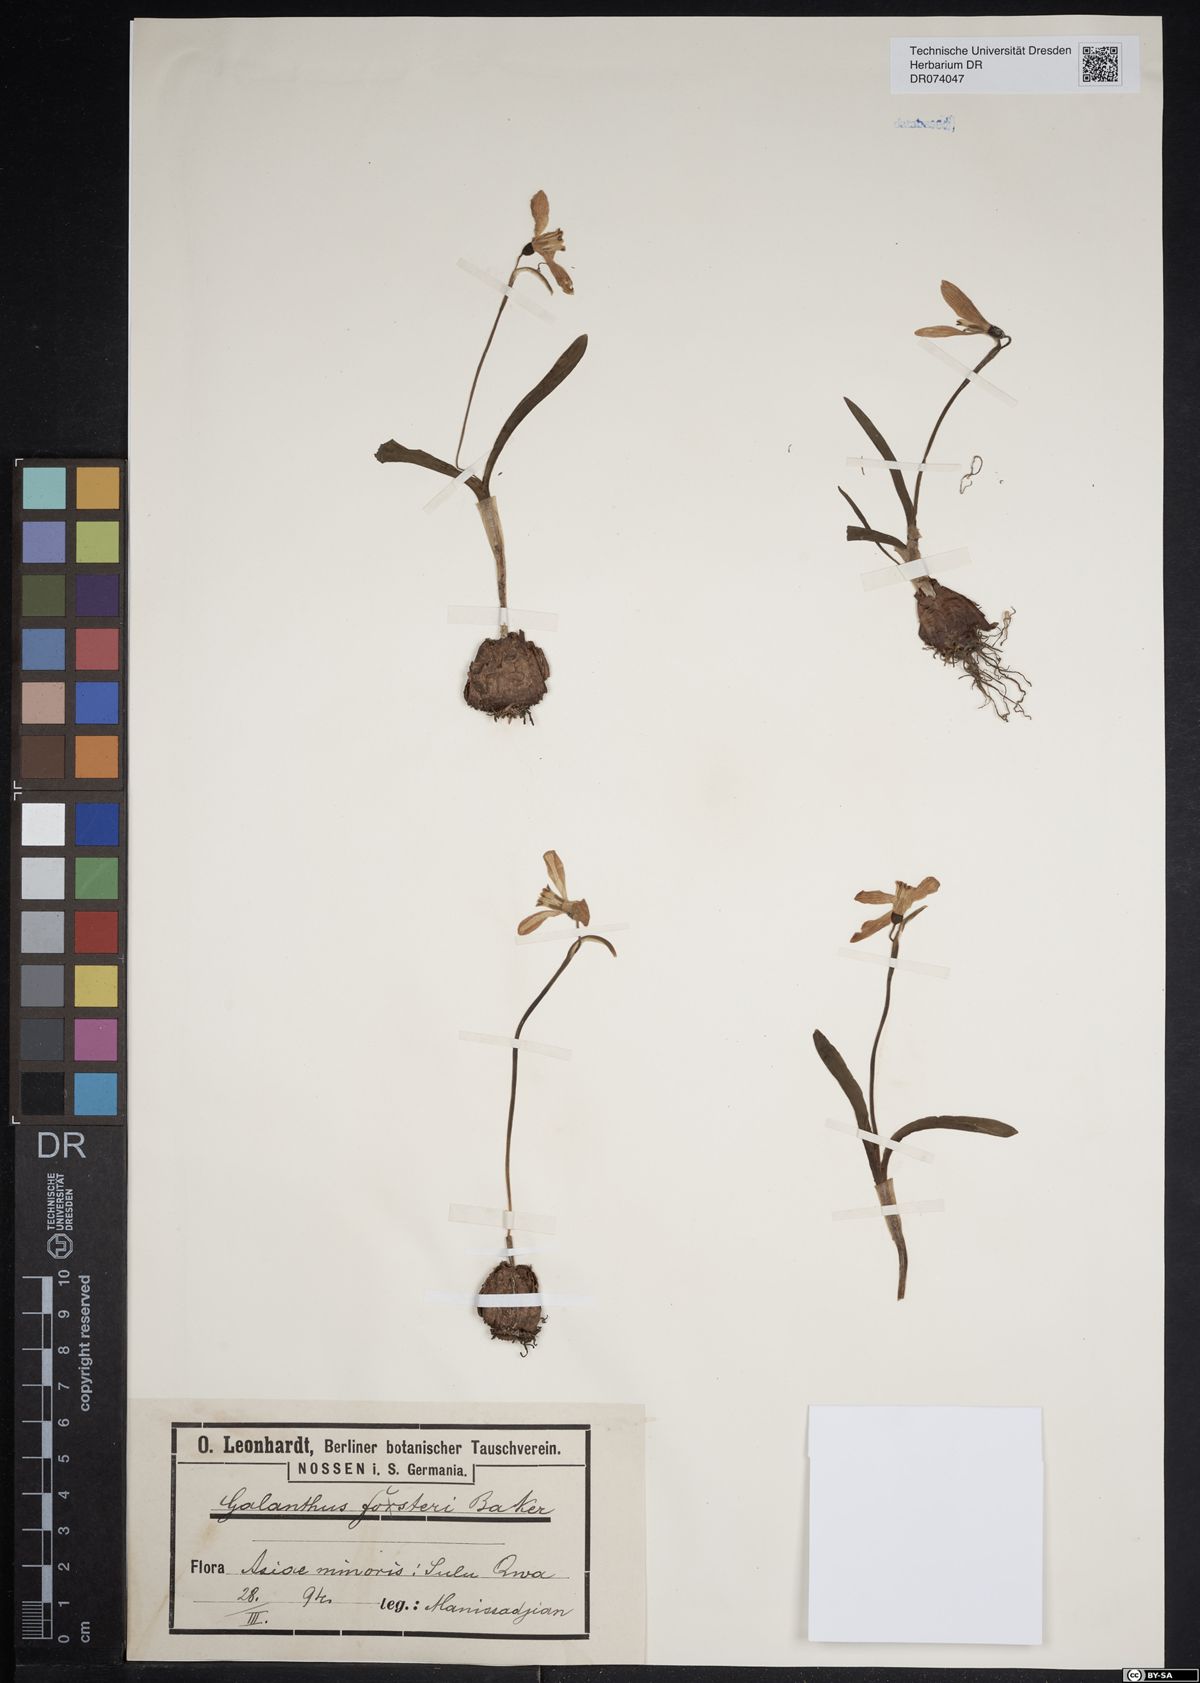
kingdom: Plantae
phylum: Tracheophyta
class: Liliopsida
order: Asparagales
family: Amaryllidaceae
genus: Galanthus
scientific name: Galanthus fosteri
